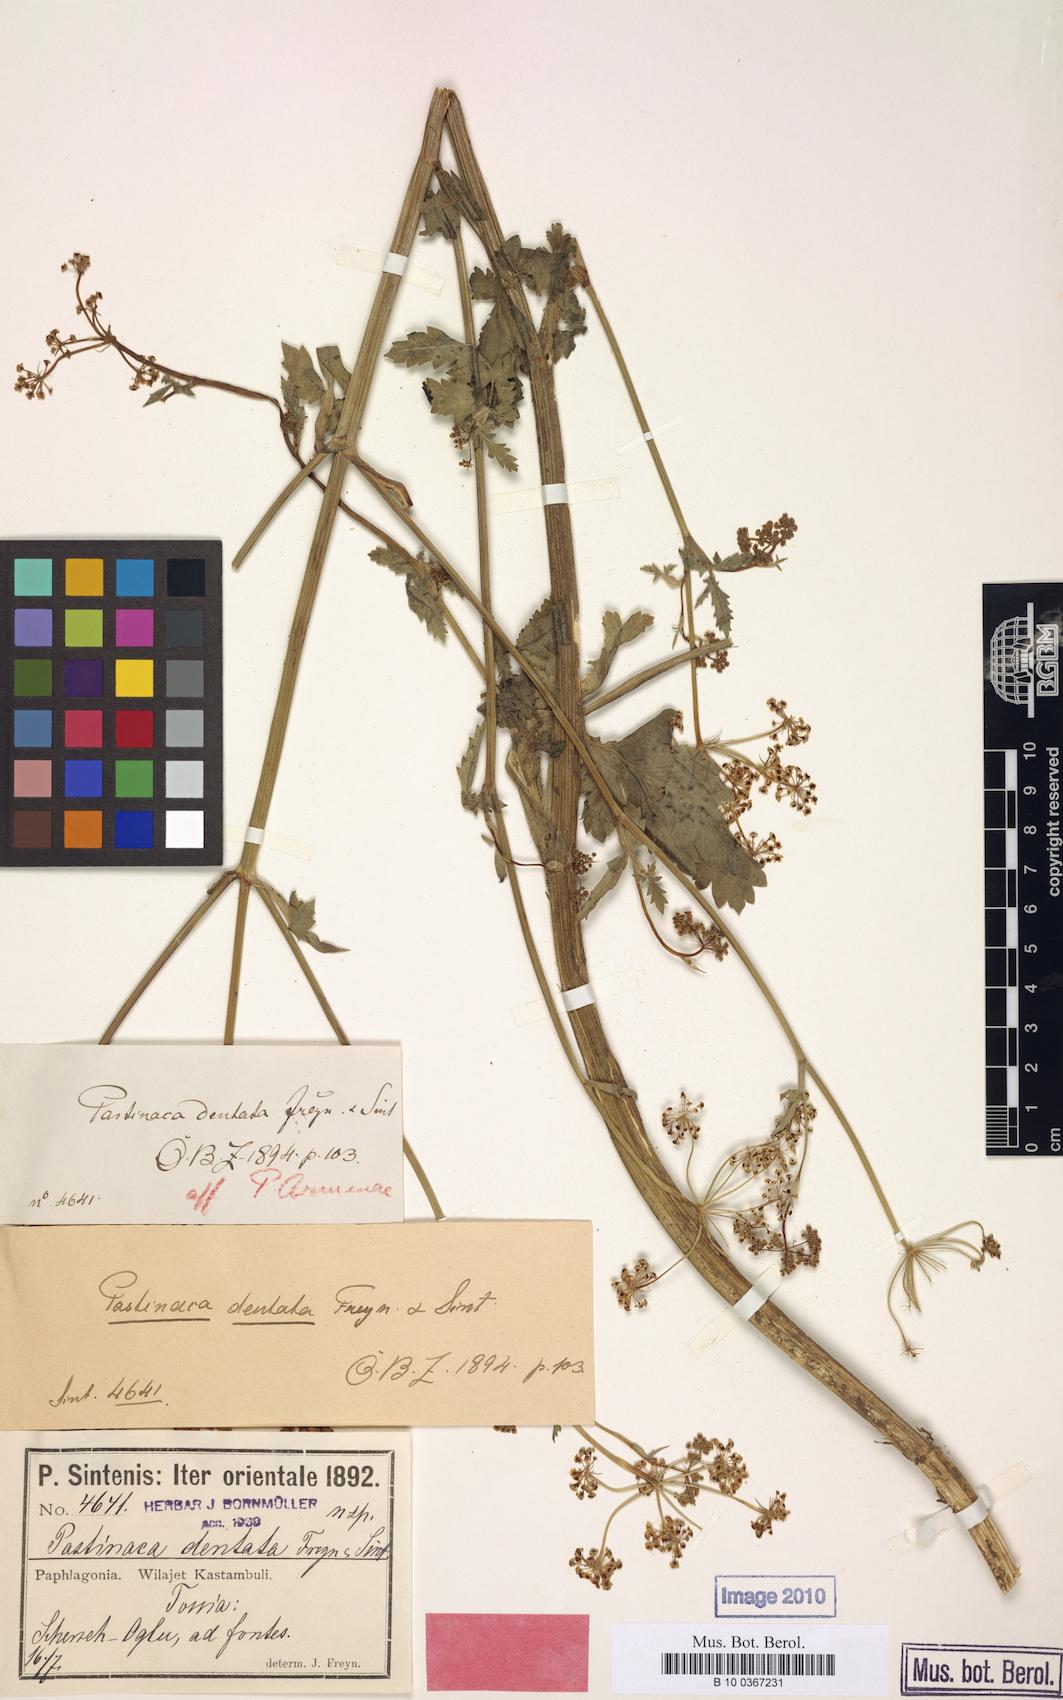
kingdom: Plantae
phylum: Tracheophyta
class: Magnoliopsida
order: Apiales
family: Apiaceae
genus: Pastinaca
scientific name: Pastinaca armena
